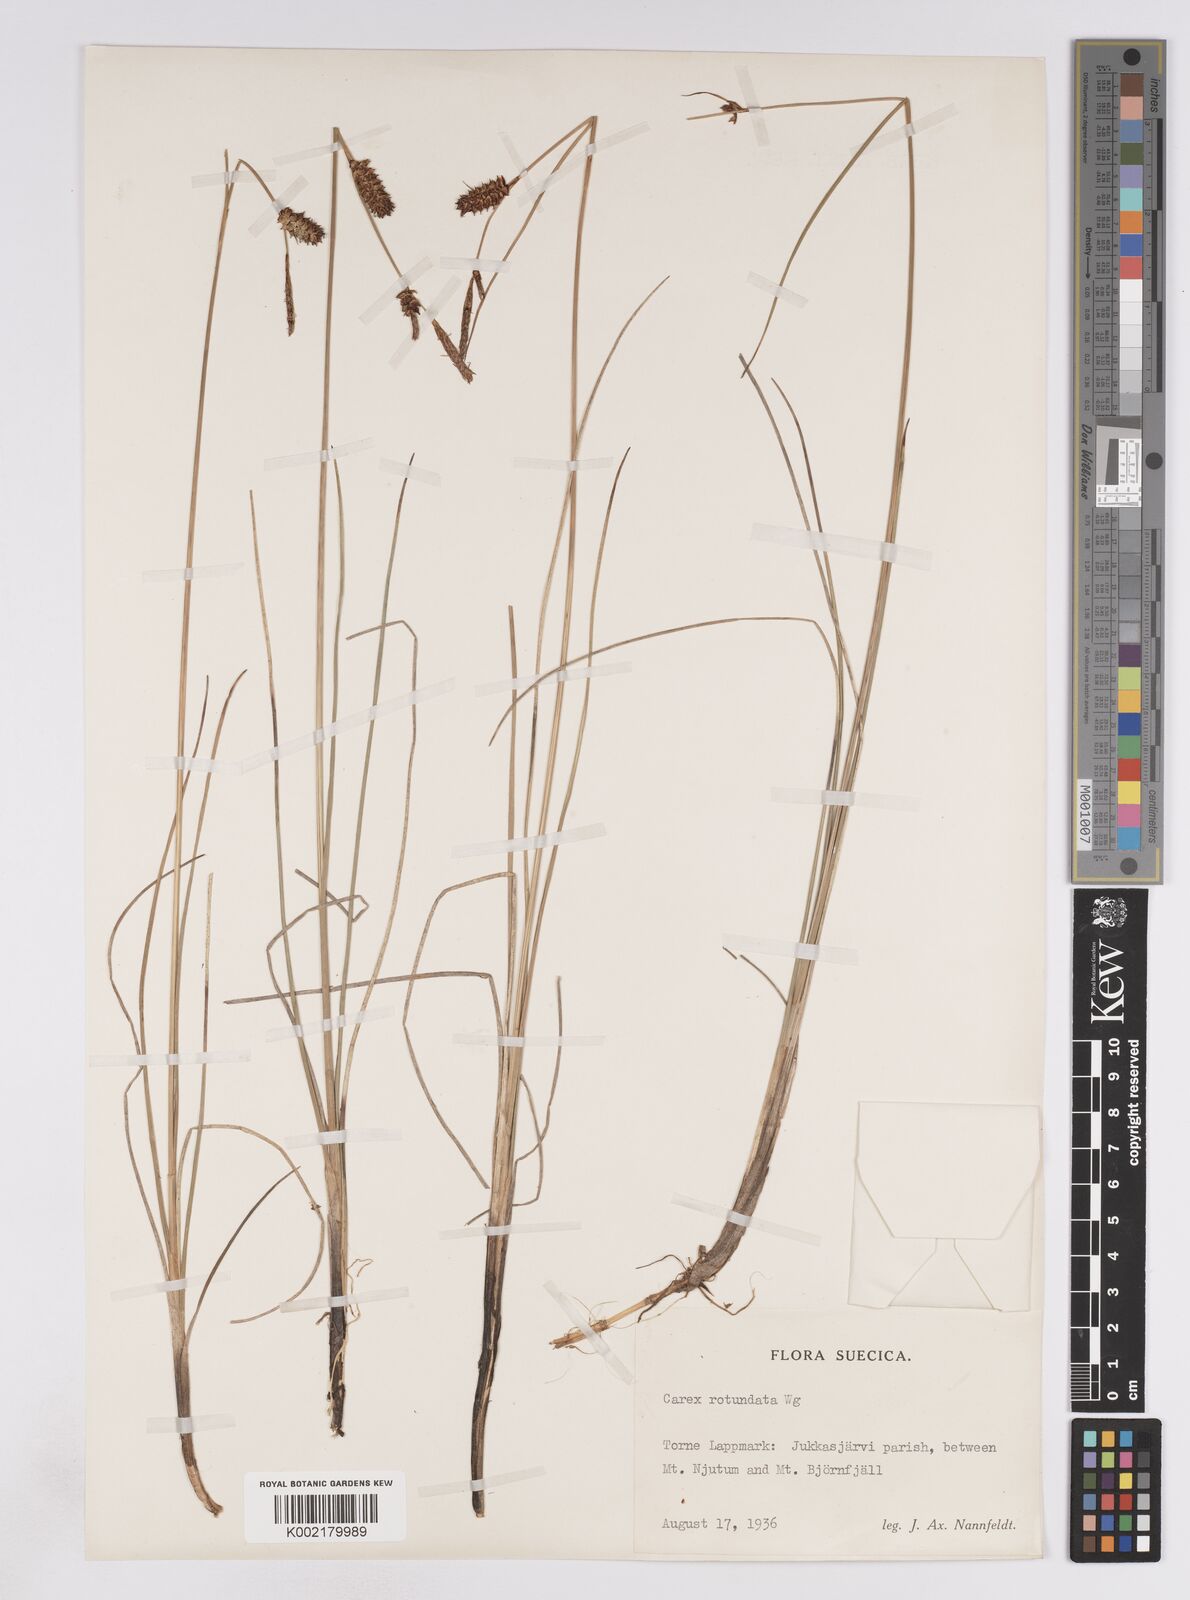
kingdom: Plantae
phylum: Tracheophyta
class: Liliopsida
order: Poales
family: Cyperaceae
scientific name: Cyperaceae
